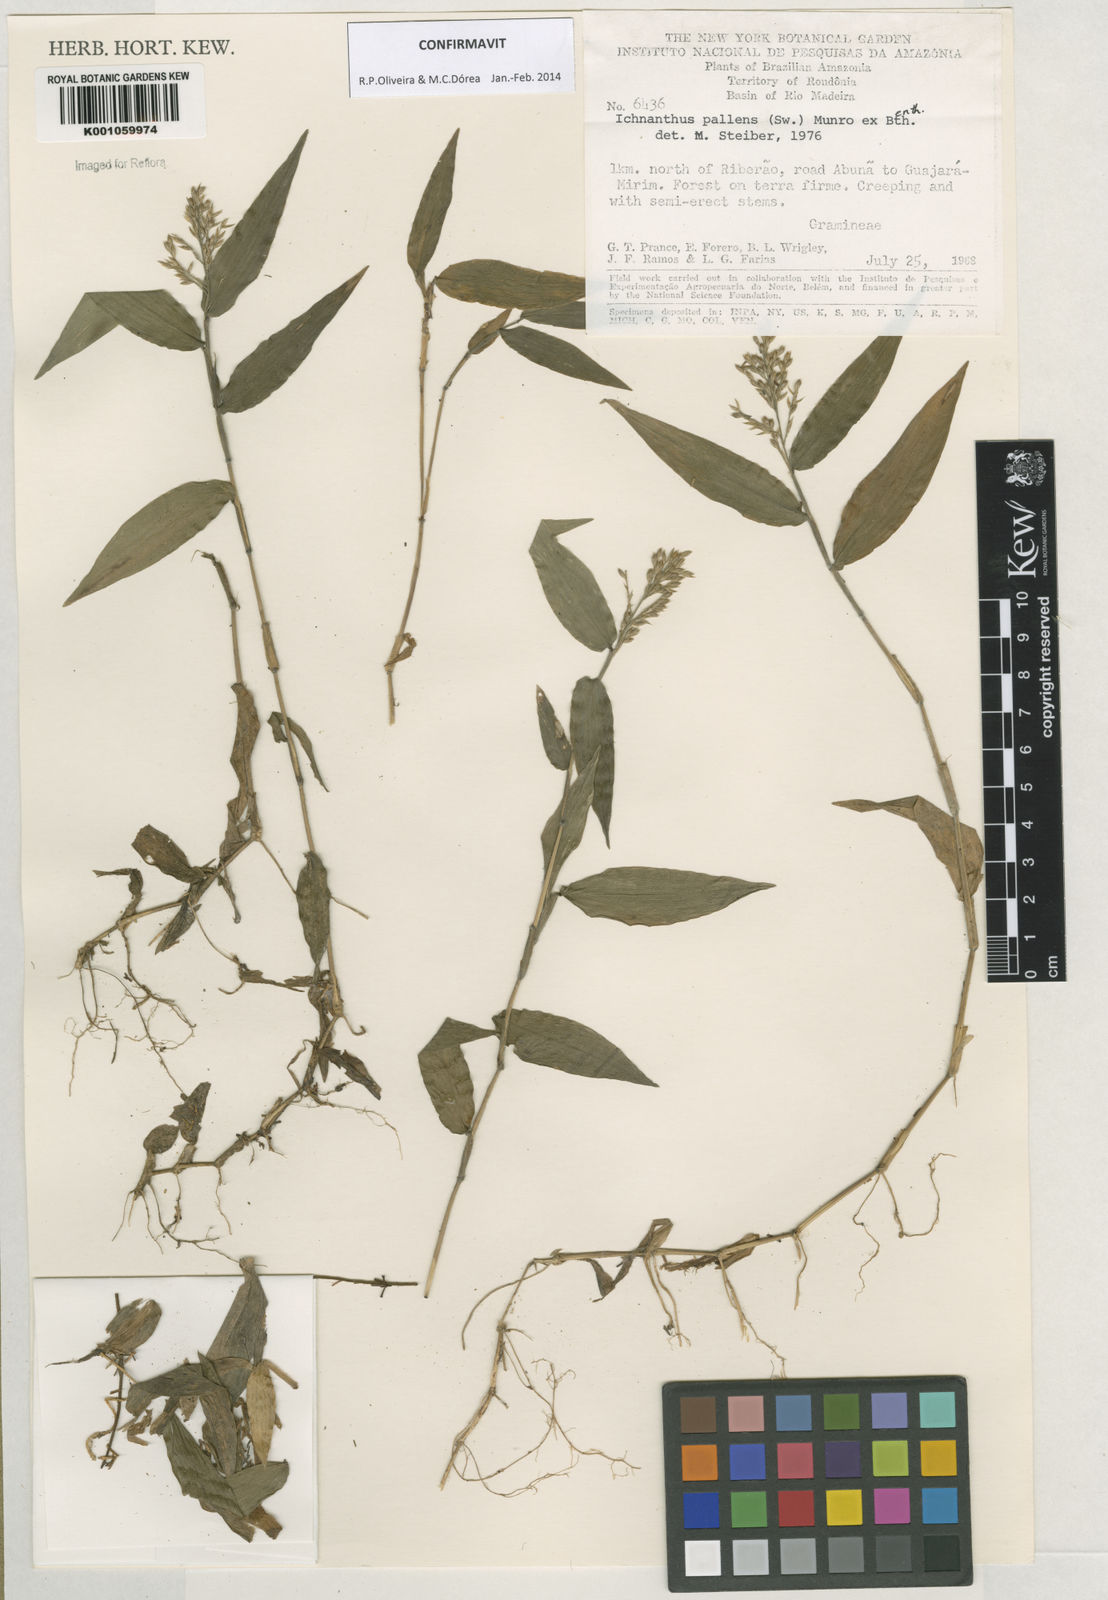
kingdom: Plantae
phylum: Tracheophyta
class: Liliopsida
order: Poales
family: Poaceae
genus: Ichnanthus
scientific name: Ichnanthus pallens
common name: Water grass
